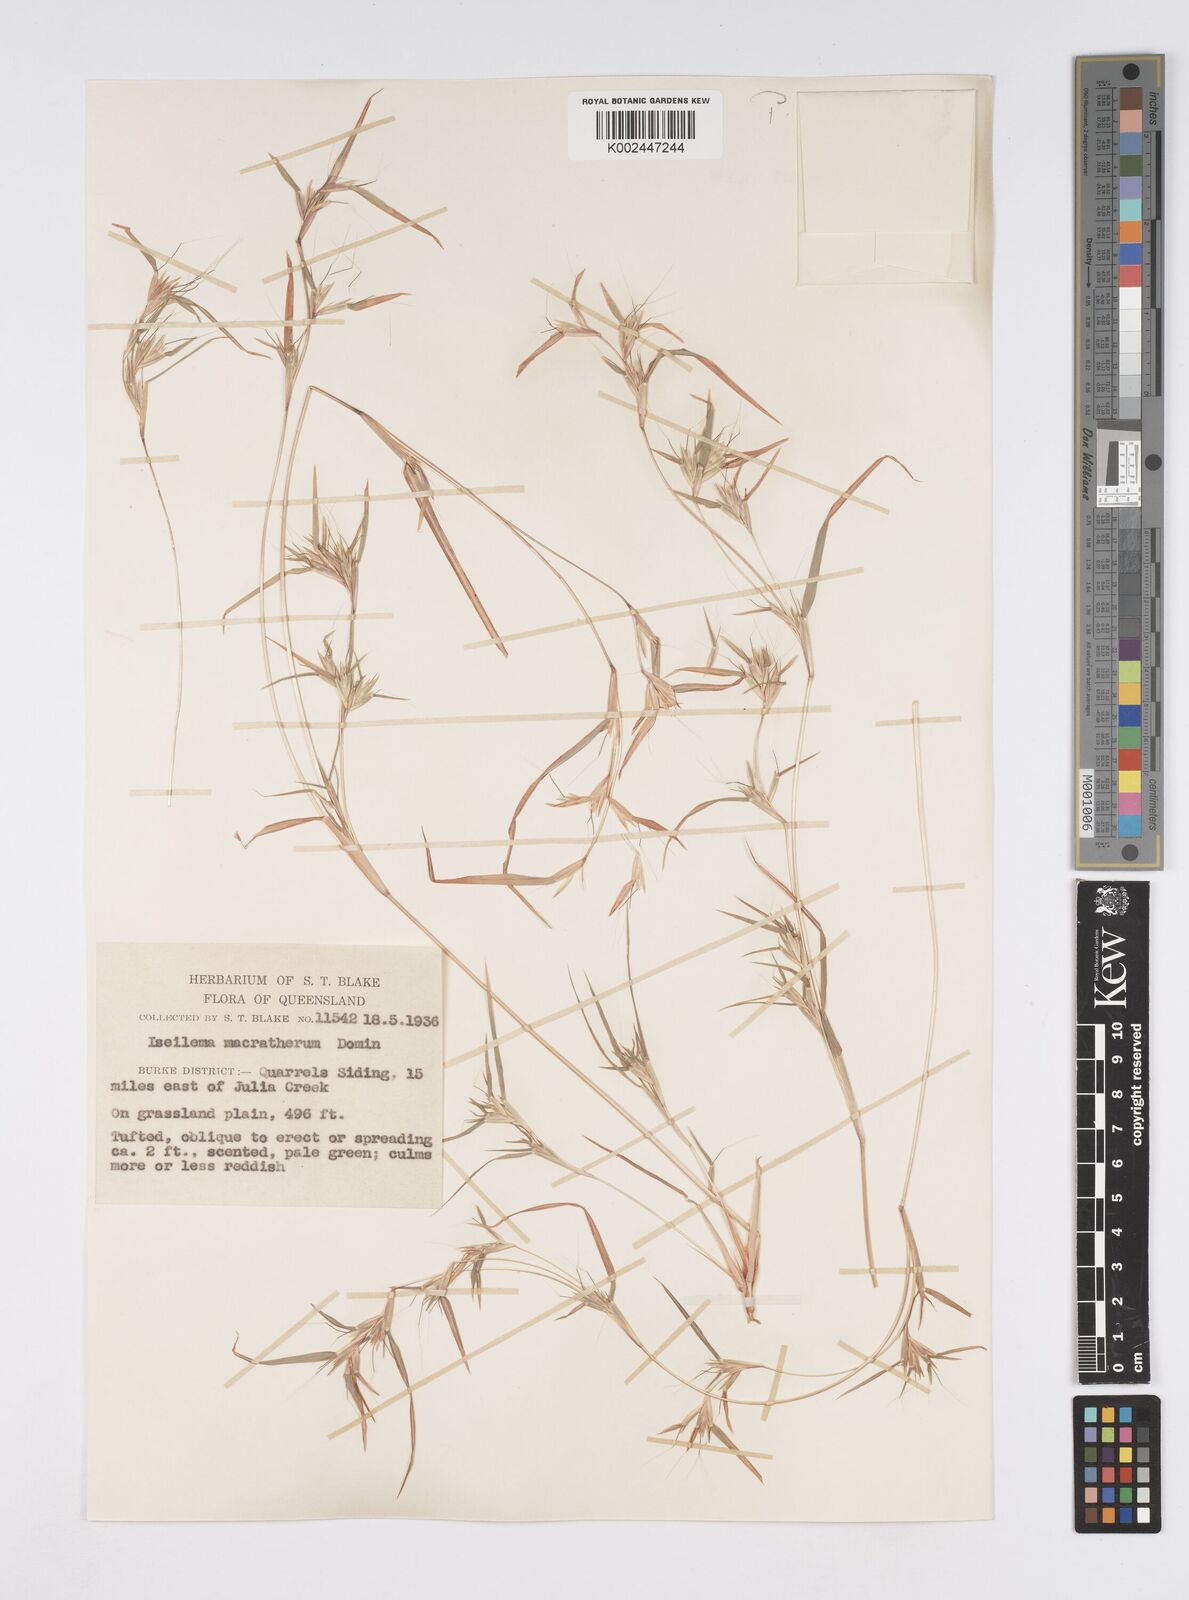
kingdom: Plantae
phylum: Tracheophyta
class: Liliopsida
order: Poales
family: Poaceae
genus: Iseilema
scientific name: Iseilema macratherum
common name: Bull flinders grass
